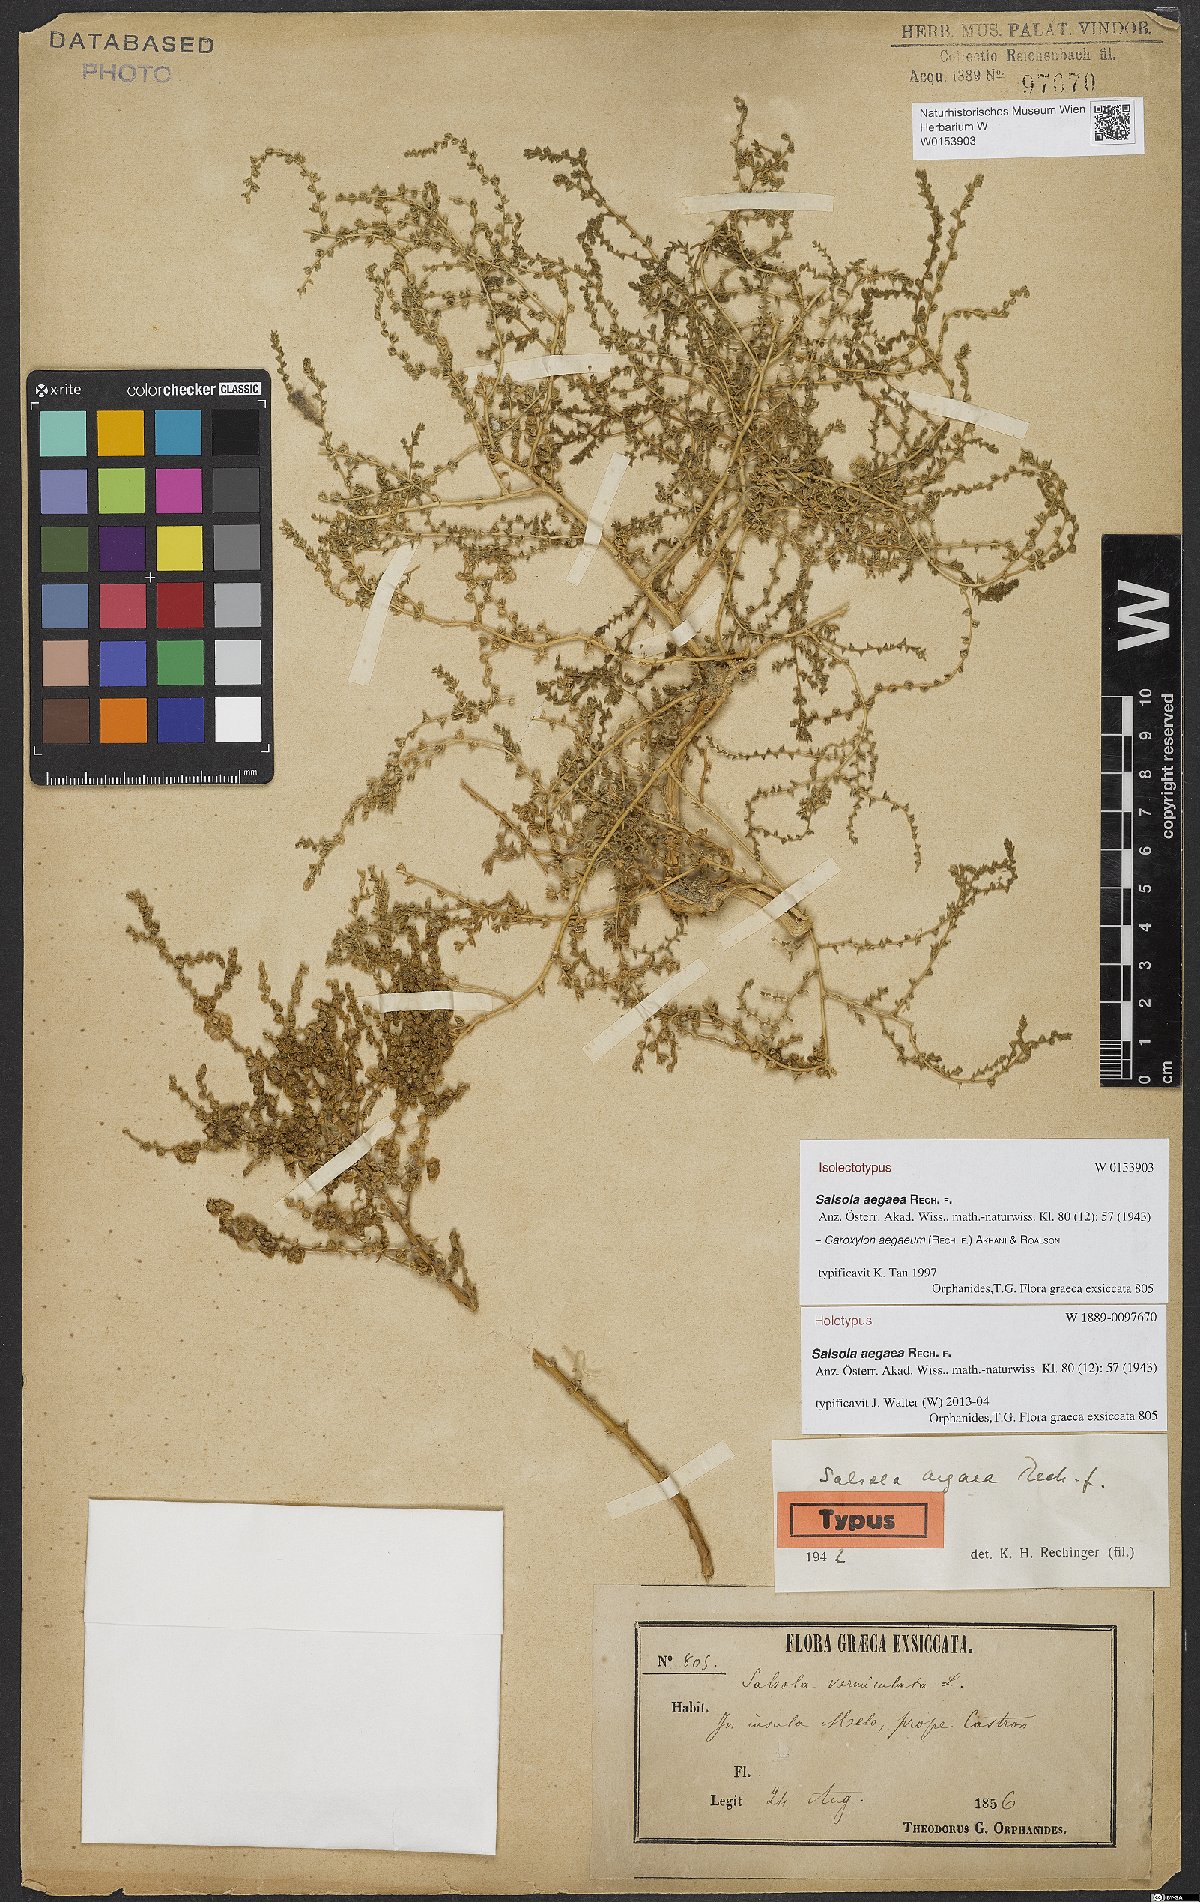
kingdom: Plantae
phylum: Tracheophyta
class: Magnoliopsida
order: Caryophyllales
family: Amaranthaceae
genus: Nitrosalsola
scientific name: Nitrosalsola aegaea
